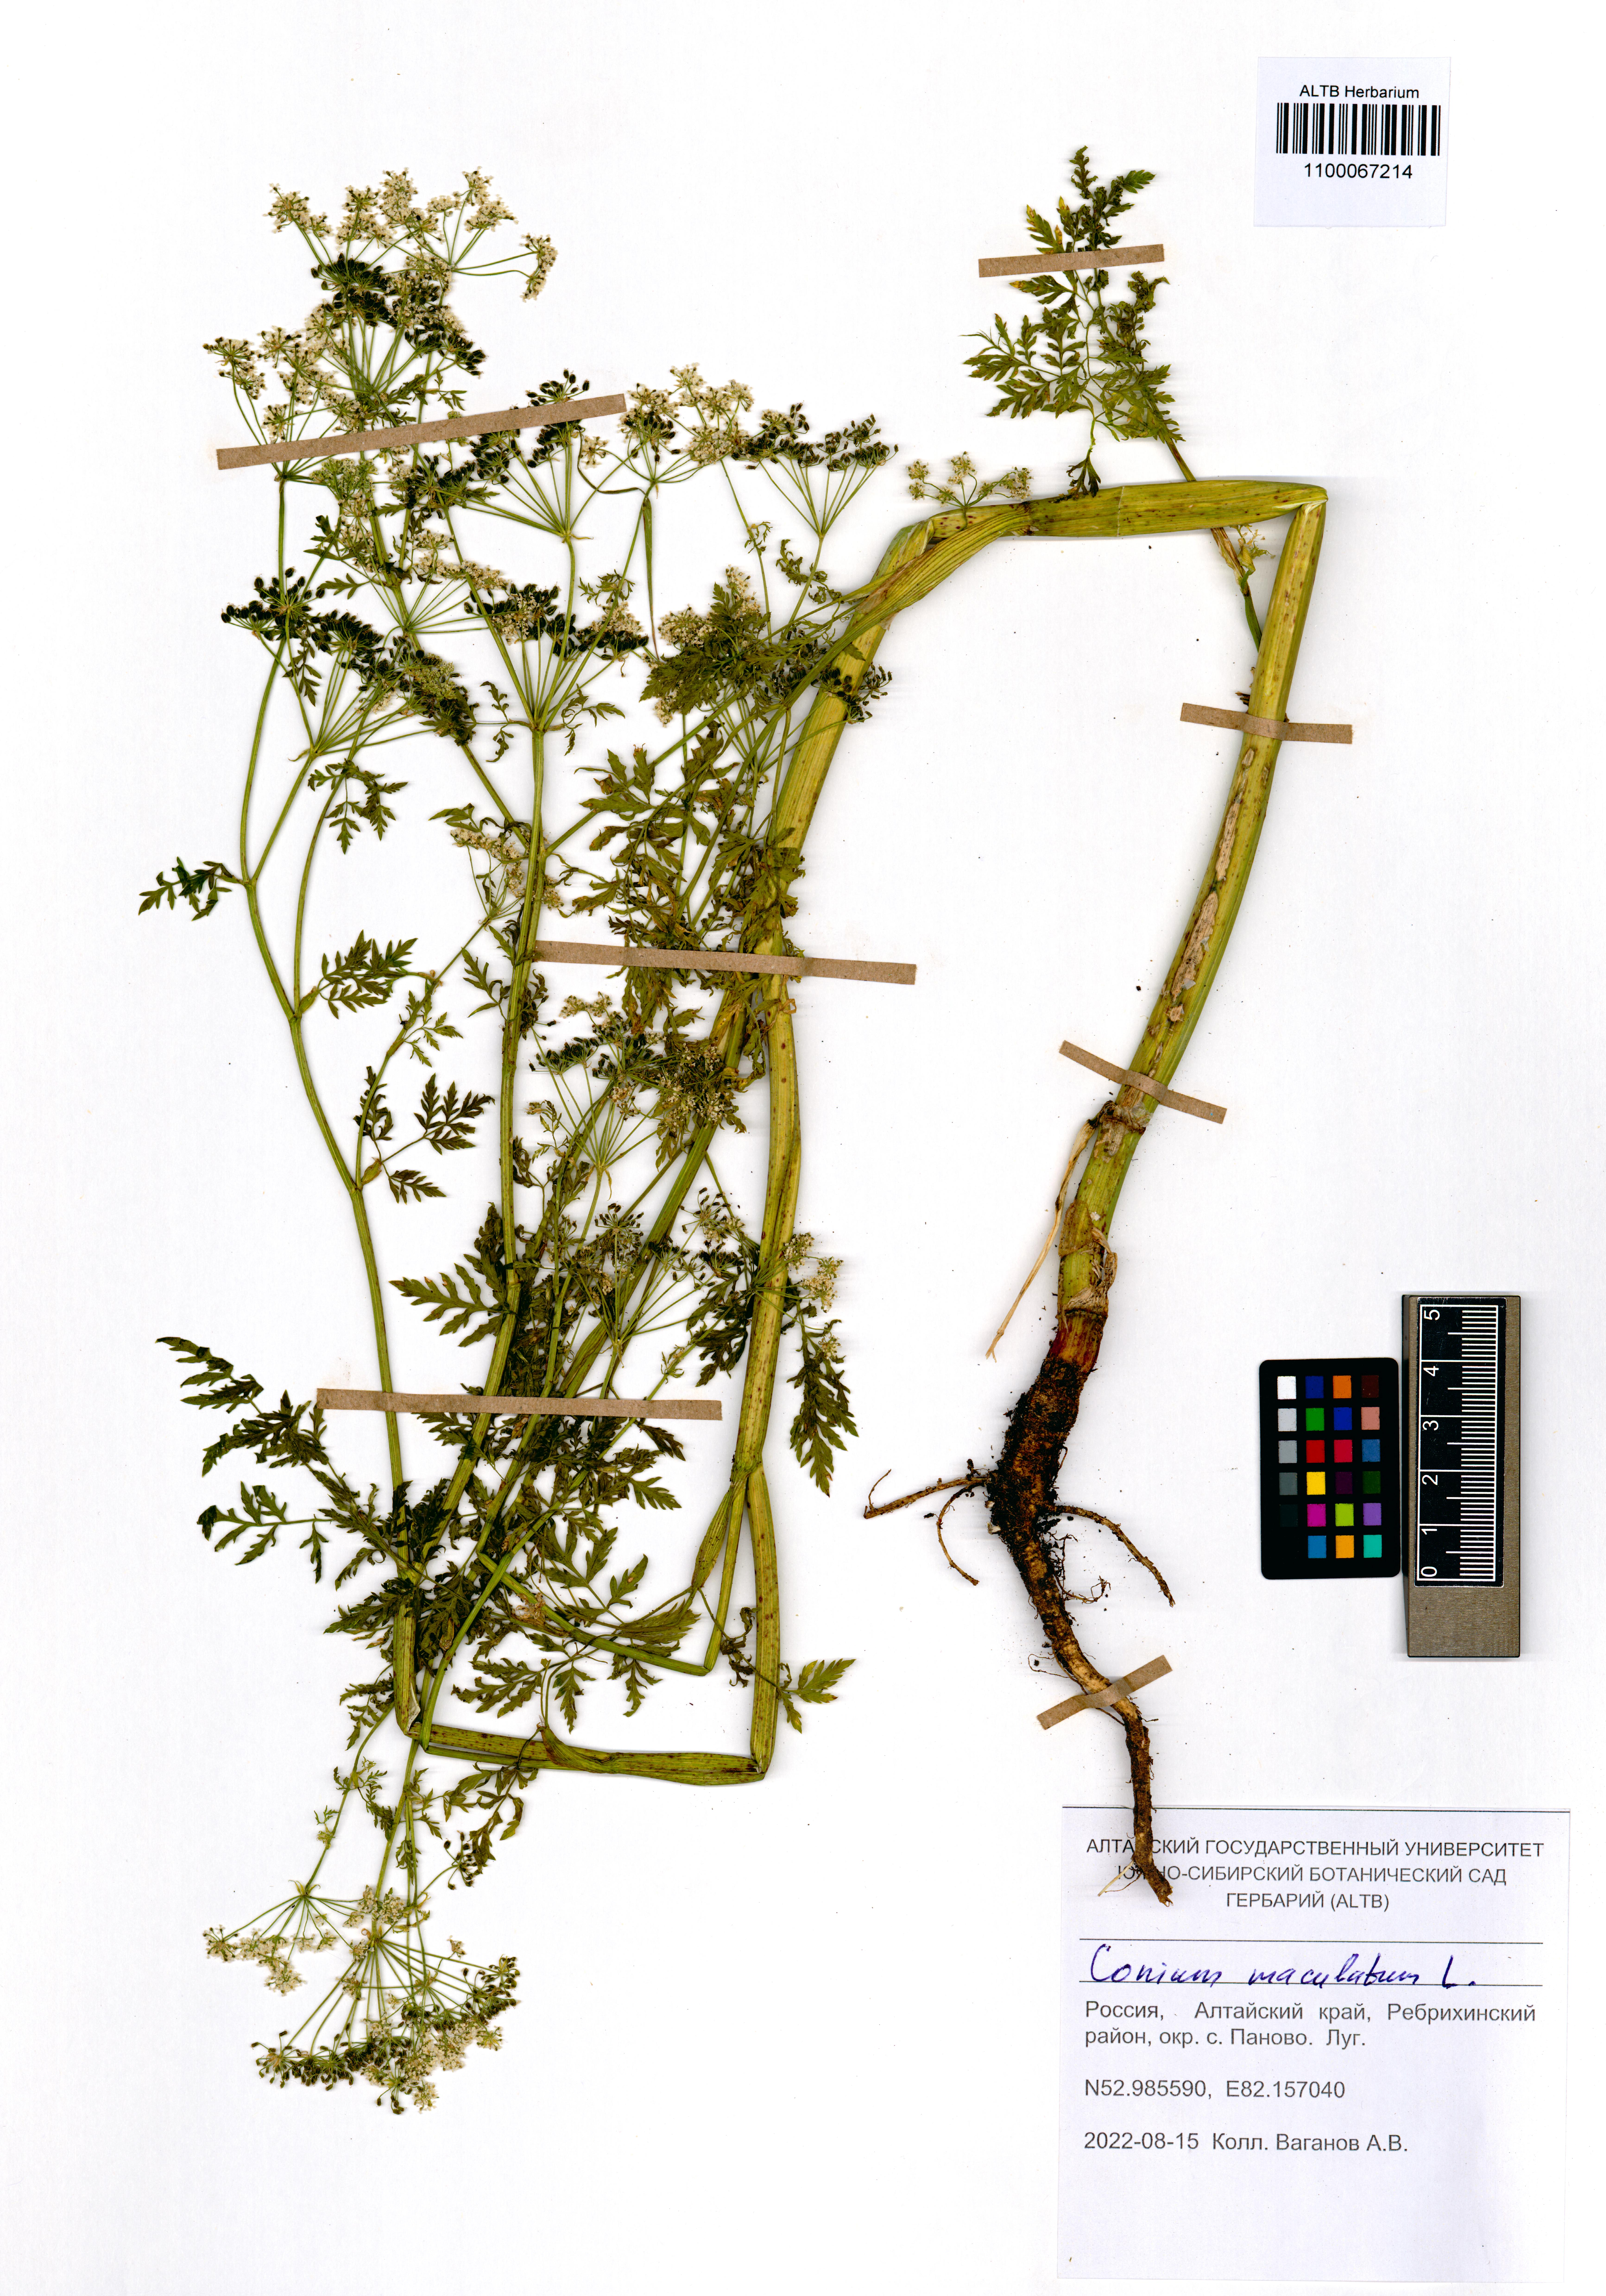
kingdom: Plantae
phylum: Tracheophyta
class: Magnoliopsida
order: Apiales
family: Apiaceae
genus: Conium
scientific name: Conium maculatum
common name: Hemlock
